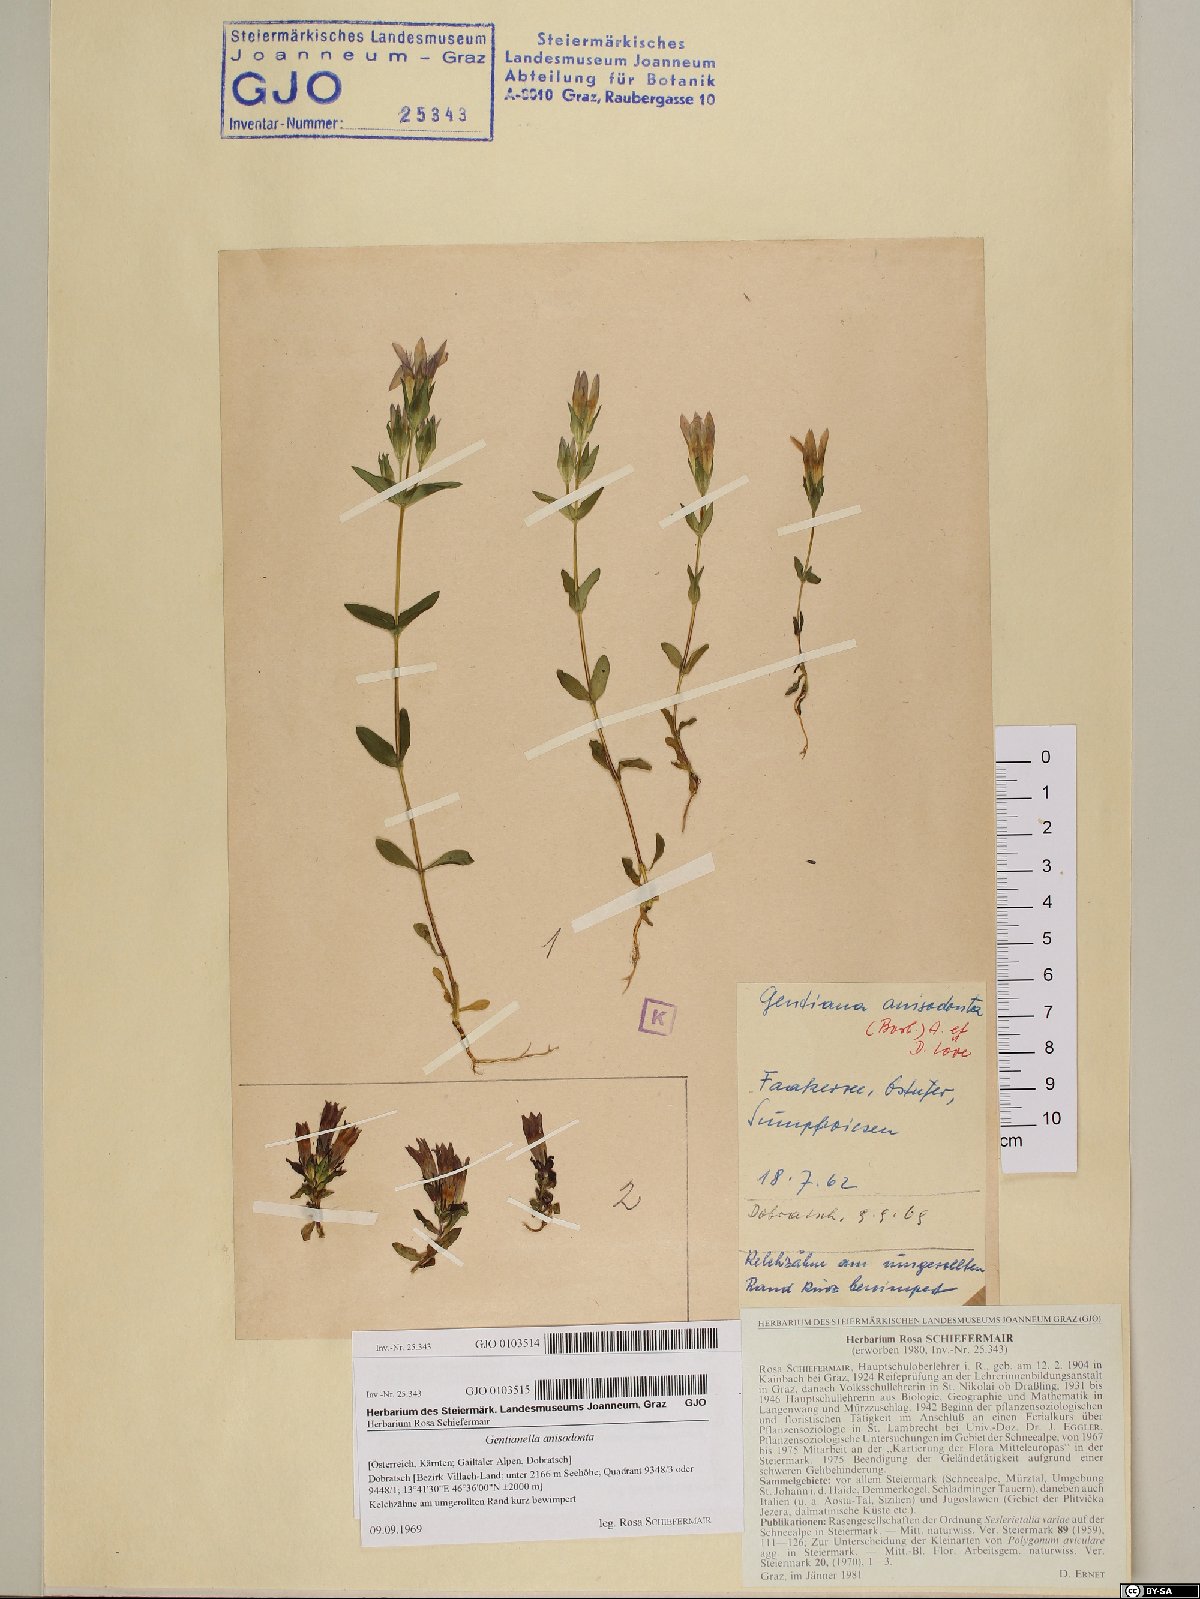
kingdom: Plantae
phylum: Tracheophyta
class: Magnoliopsida
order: Gentianales
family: Gentianaceae
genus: Gentianella
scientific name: Gentianella anisodonta
